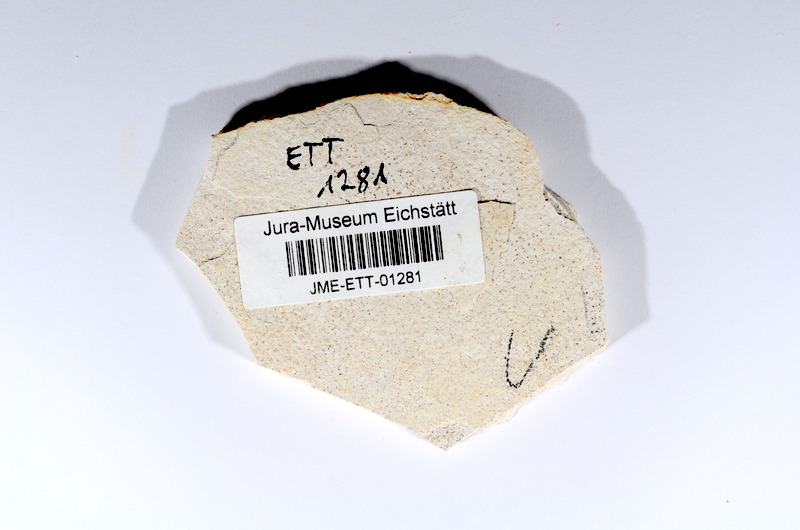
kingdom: Animalia
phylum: Chordata
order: Salmoniformes
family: Orthogonikleithridae
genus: Orthogonikleithrus
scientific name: Orthogonikleithrus hoelli
